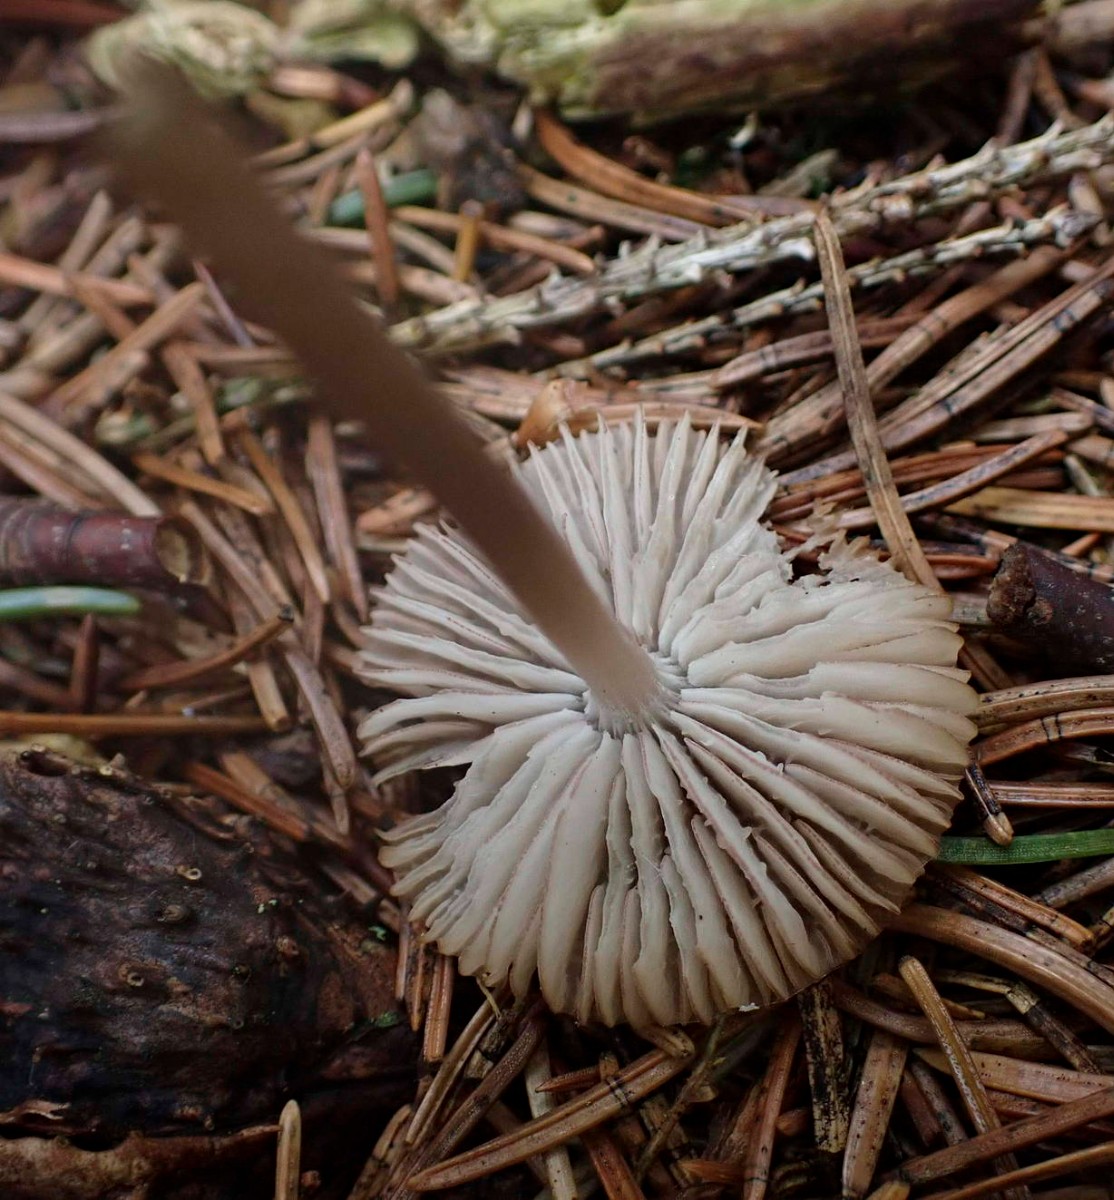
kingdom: Fungi
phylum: Basidiomycota
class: Agaricomycetes
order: Agaricales
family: Mycenaceae
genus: Mycena
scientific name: Mycena
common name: huesvamp
